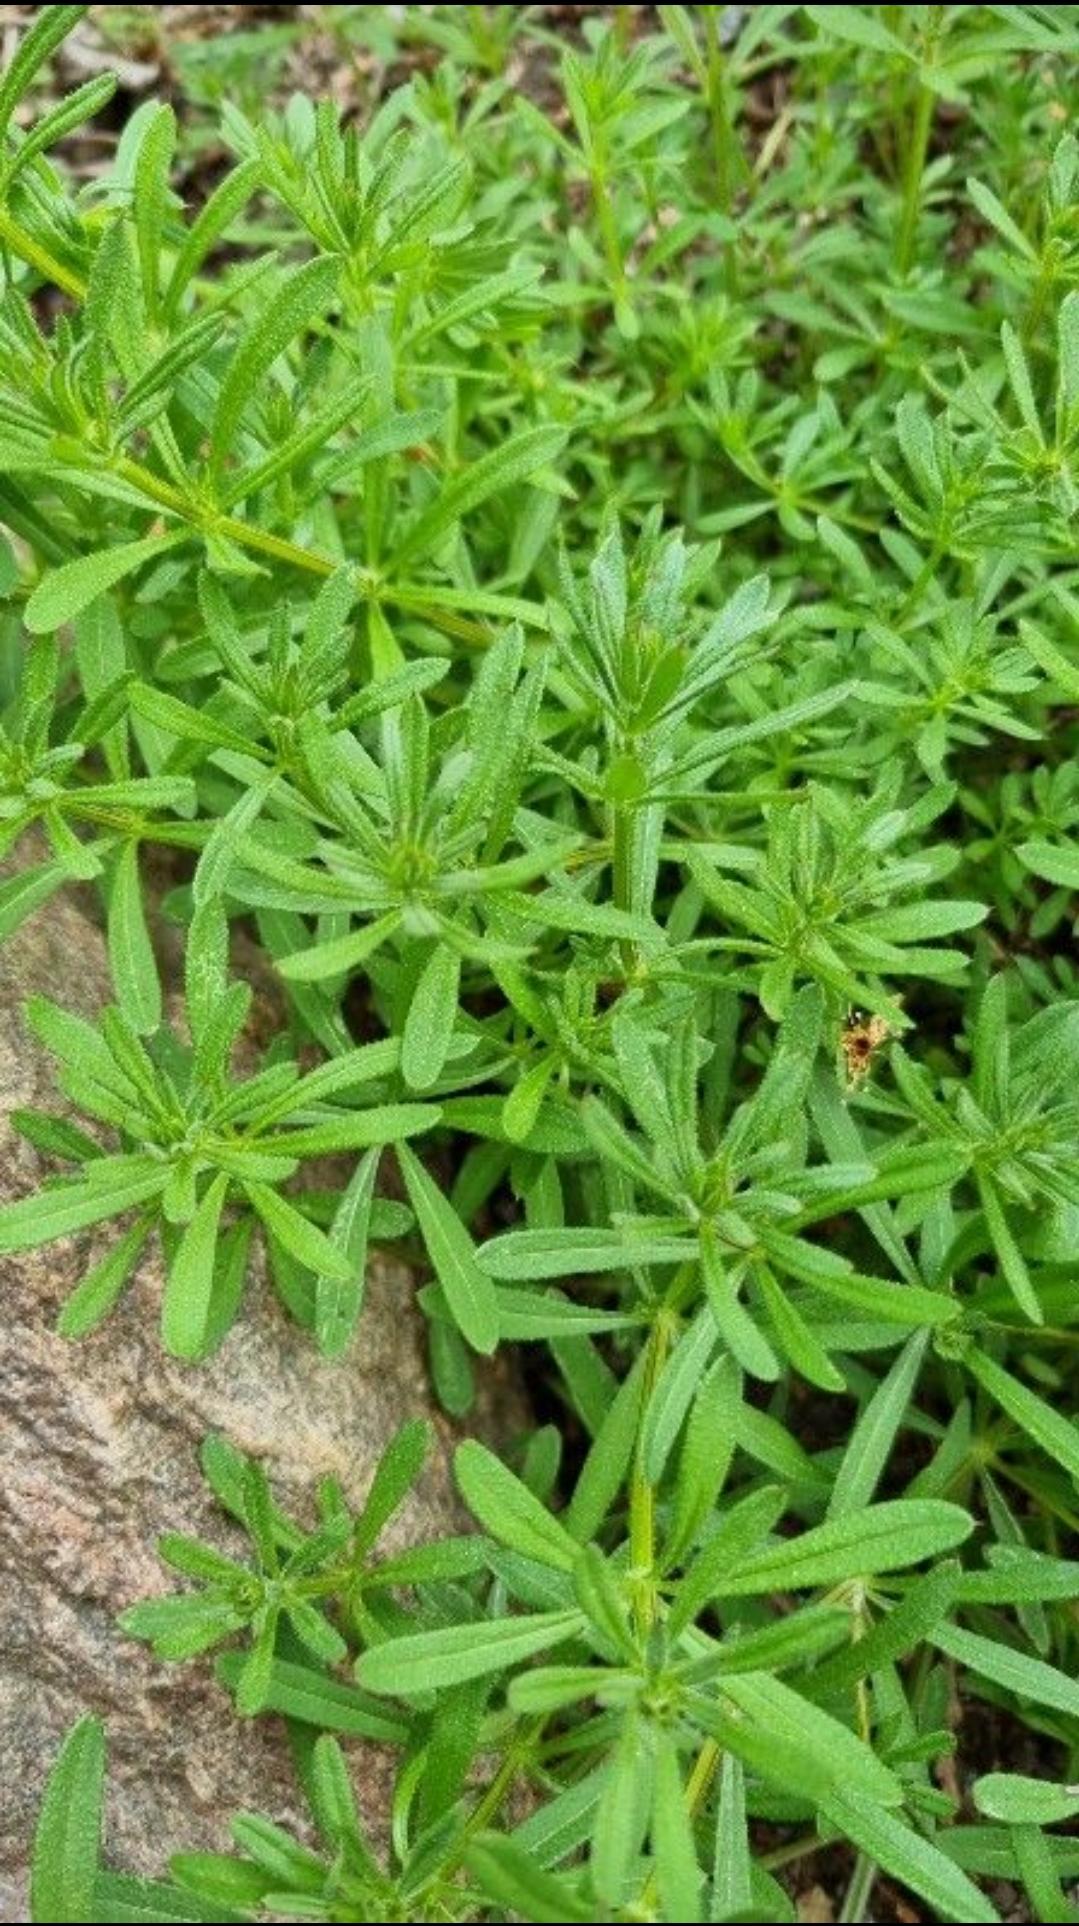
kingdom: Plantae
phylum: Tracheophyta
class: Magnoliopsida
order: Gentianales
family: Rubiaceae
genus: Galium
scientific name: Galium aparine
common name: Burre-snerre
